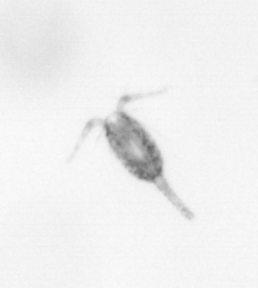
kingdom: Animalia
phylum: Arthropoda
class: Copepoda
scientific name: Copepoda
